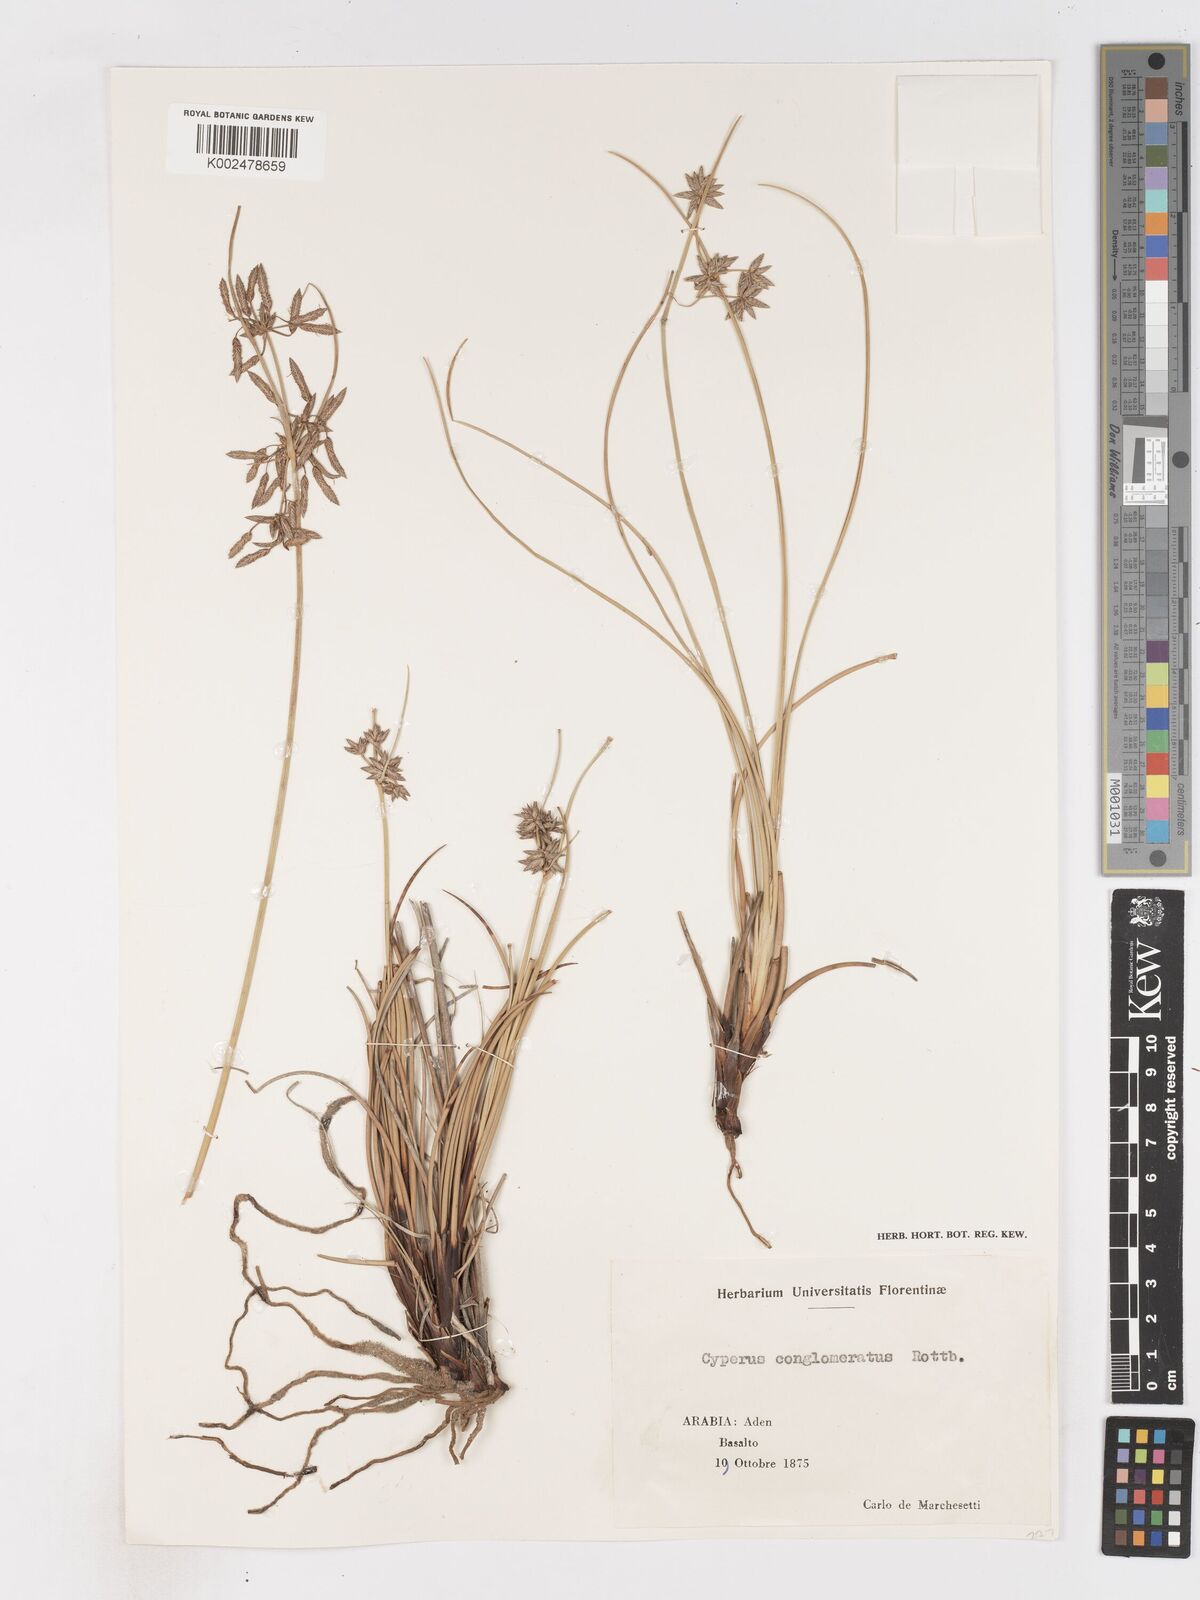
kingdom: Plantae
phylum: Tracheophyta
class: Liliopsida
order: Poales
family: Cyperaceae
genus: Cyperus
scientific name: Cyperus conglomeratus
